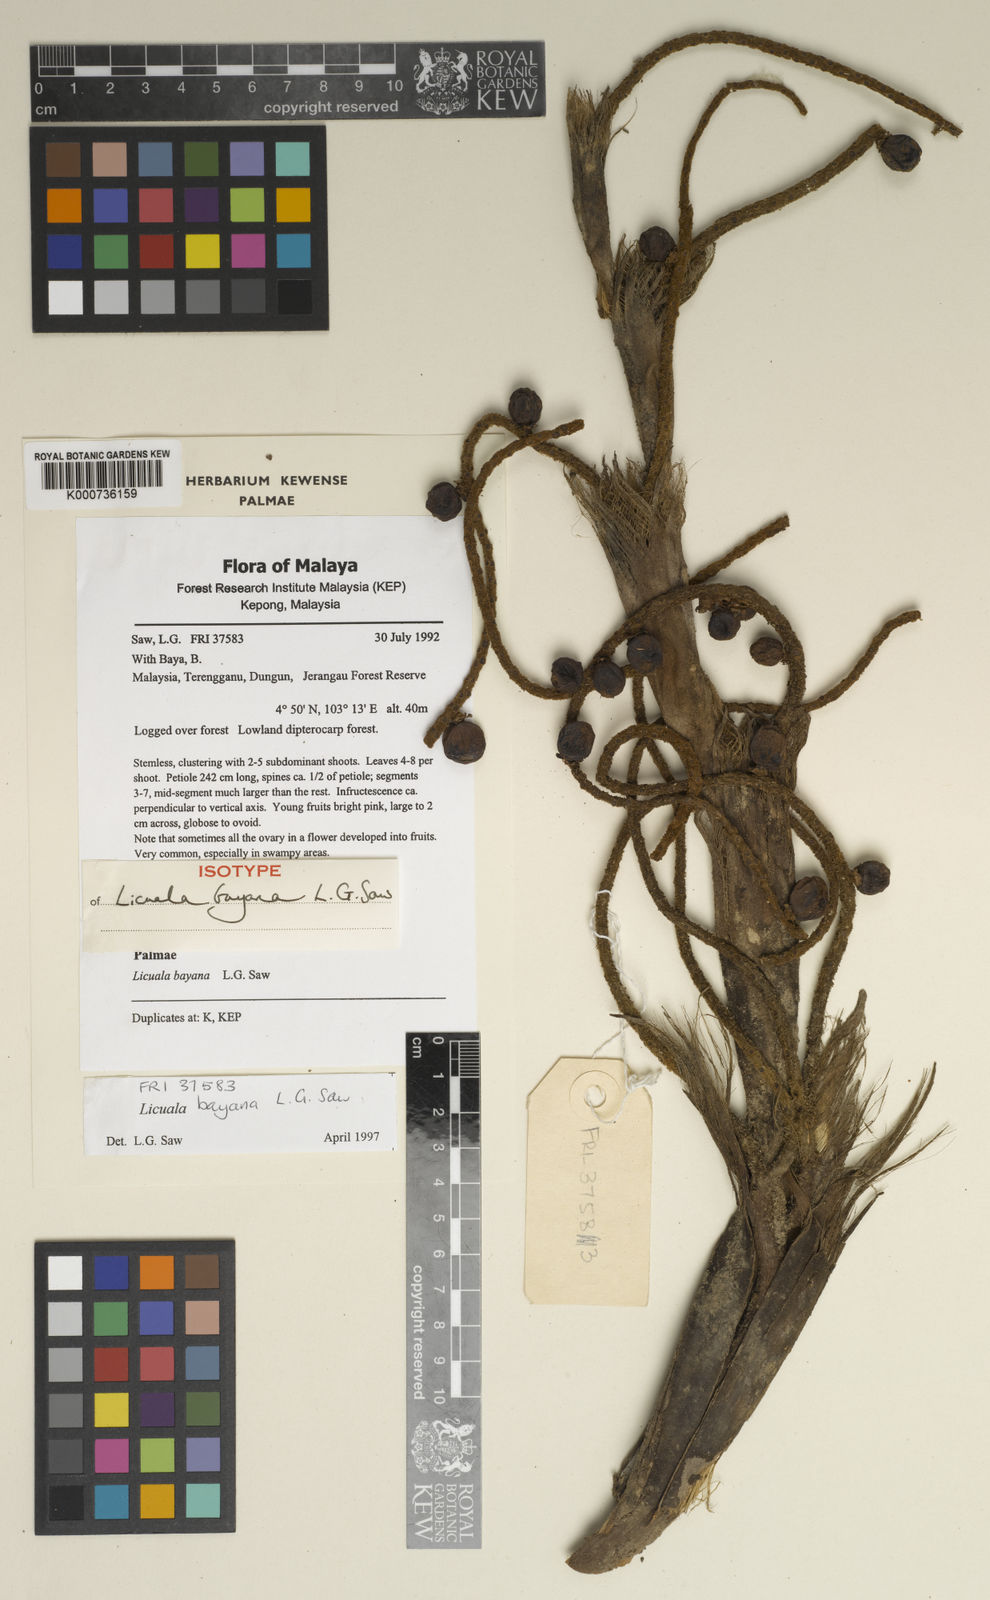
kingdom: Plantae
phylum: Tracheophyta
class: Liliopsida
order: Arecales
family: Arecaceae
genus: Licuala
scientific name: Licuala bayana
